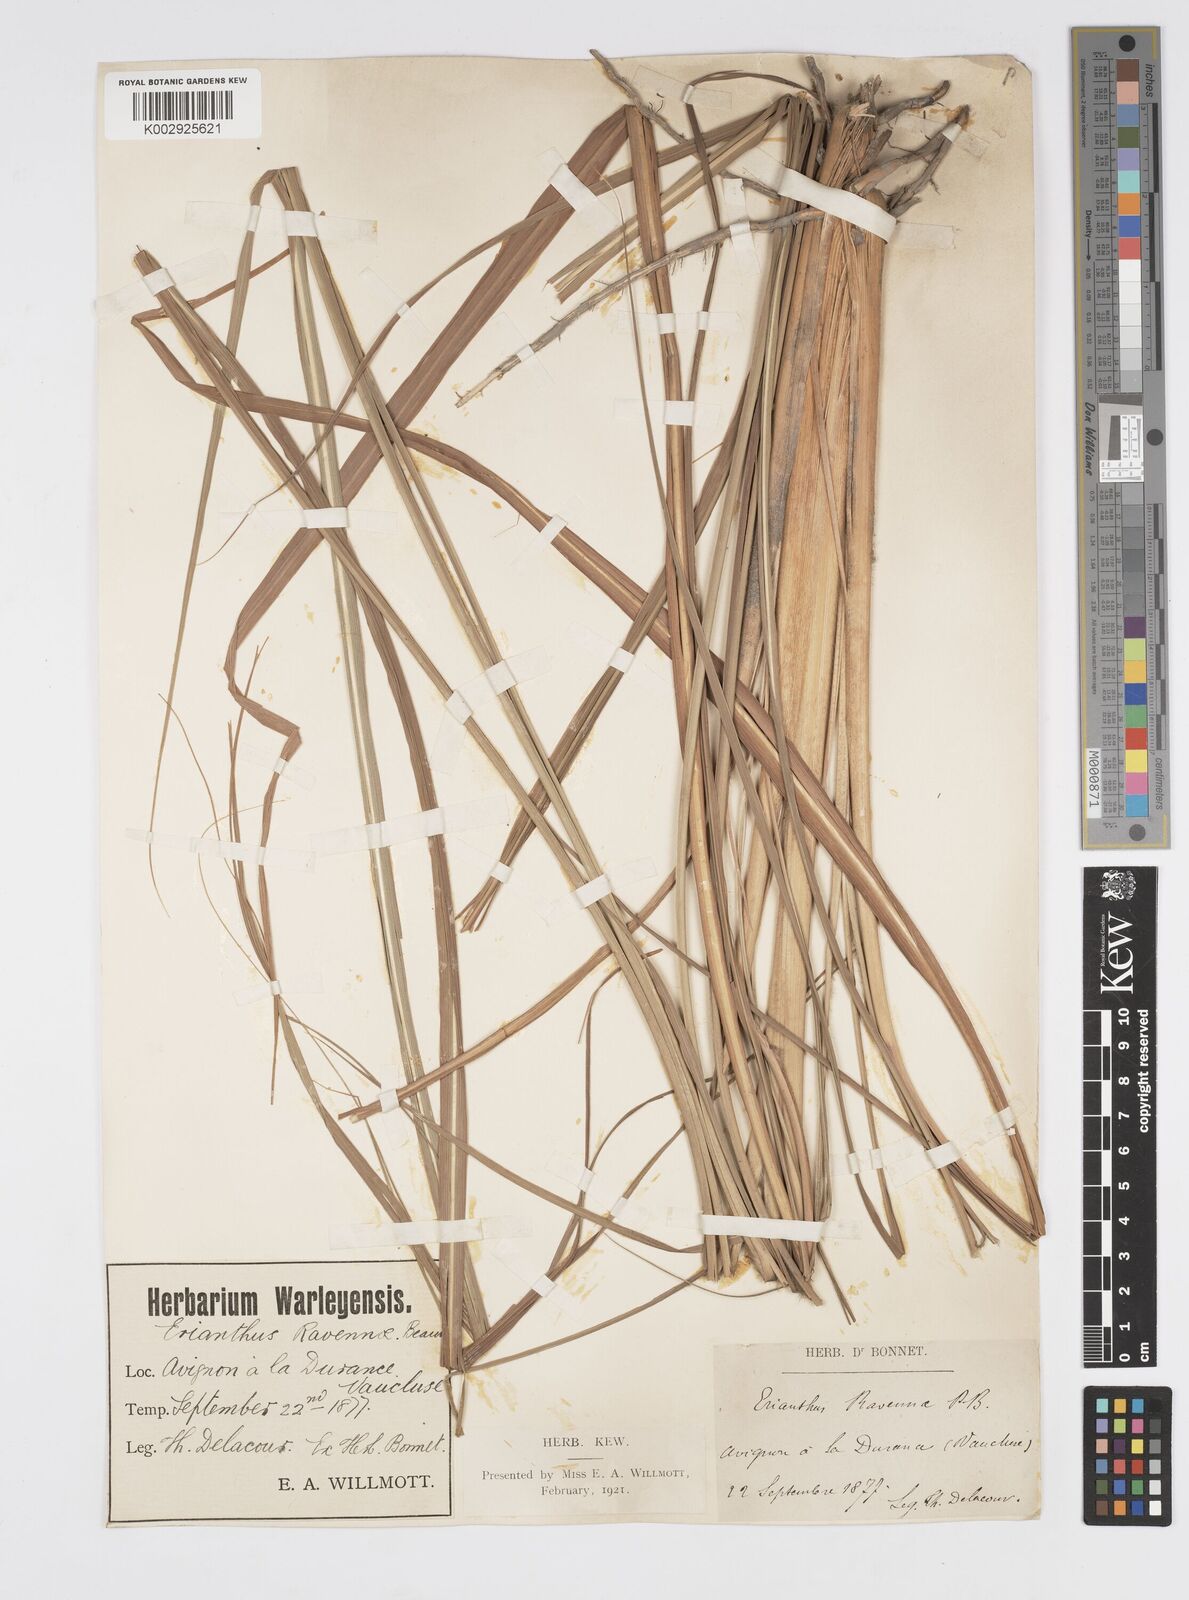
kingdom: Plantae
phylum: Tracheophyta
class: Liliopsida
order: Poales
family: Poaceae
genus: Tripidium
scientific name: Tripidium ravennae
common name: Ravenna grass
